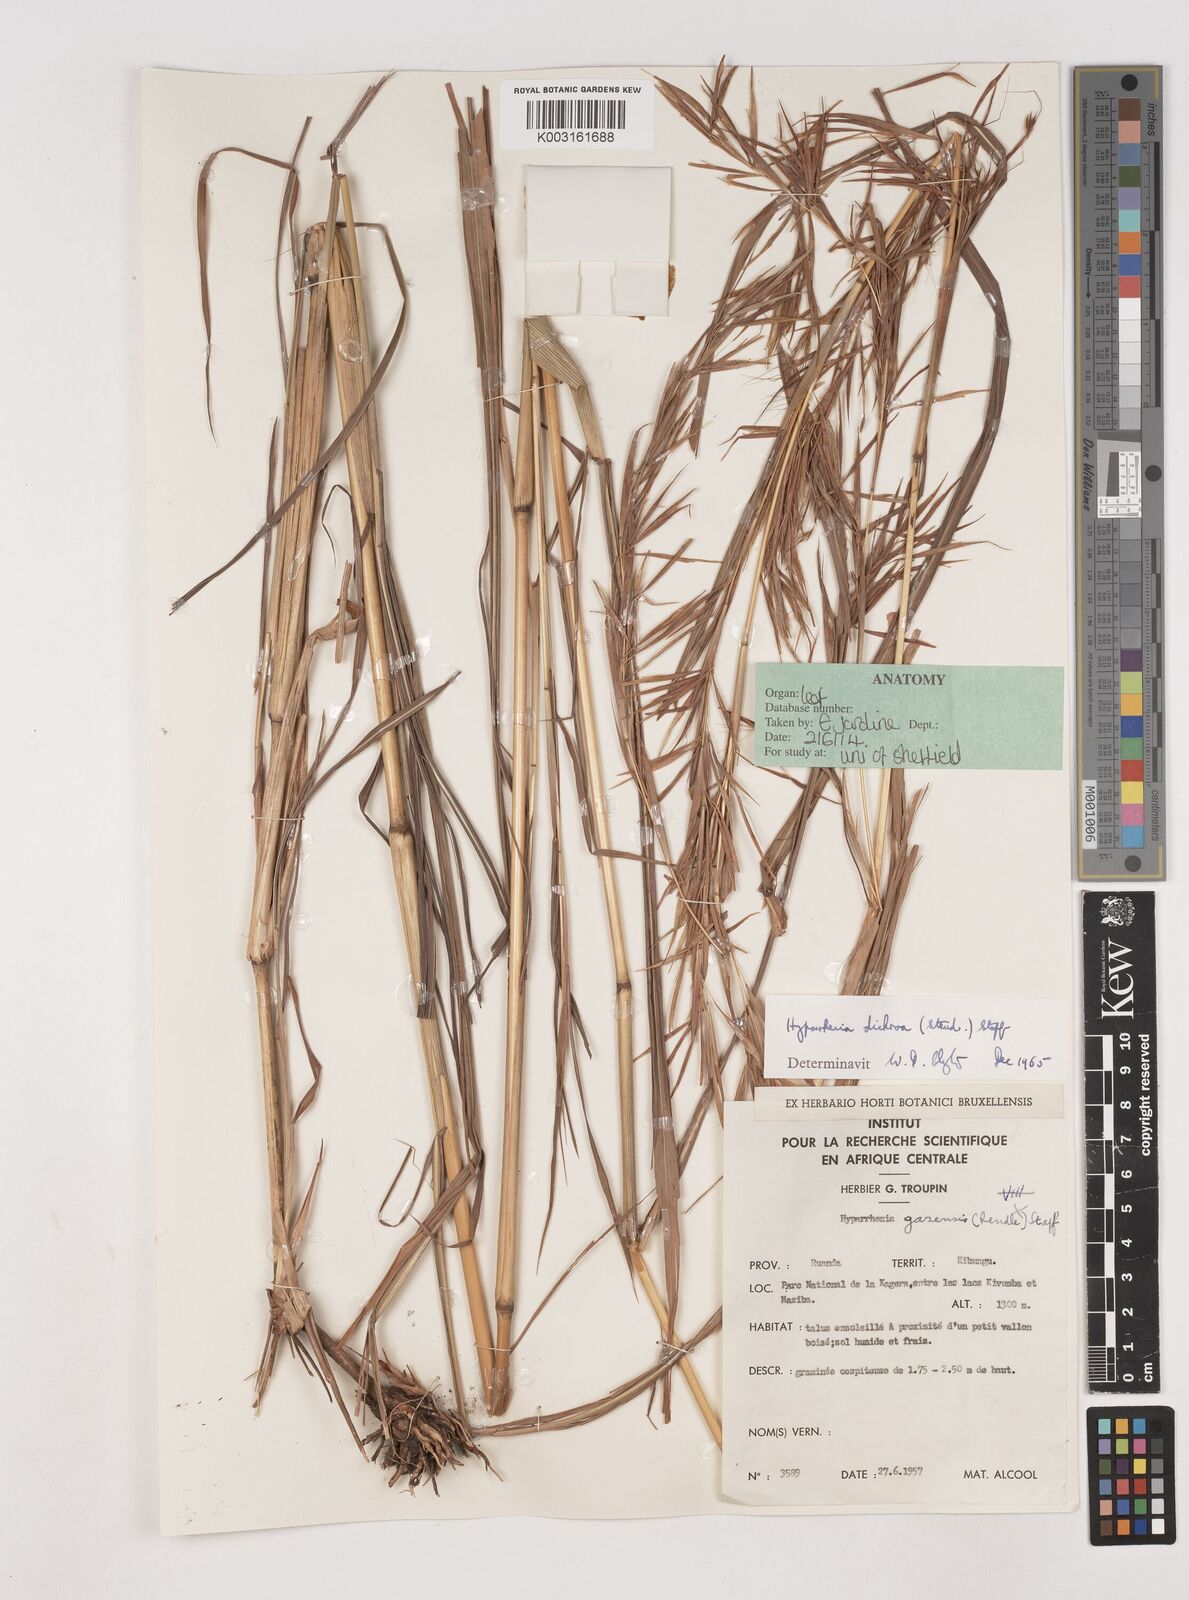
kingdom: Plantae
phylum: Tracheophyta
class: Liliopsida
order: Poales
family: Poaceae
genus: Hyparrhenia
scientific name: Hyparrhenia poecilotricha
